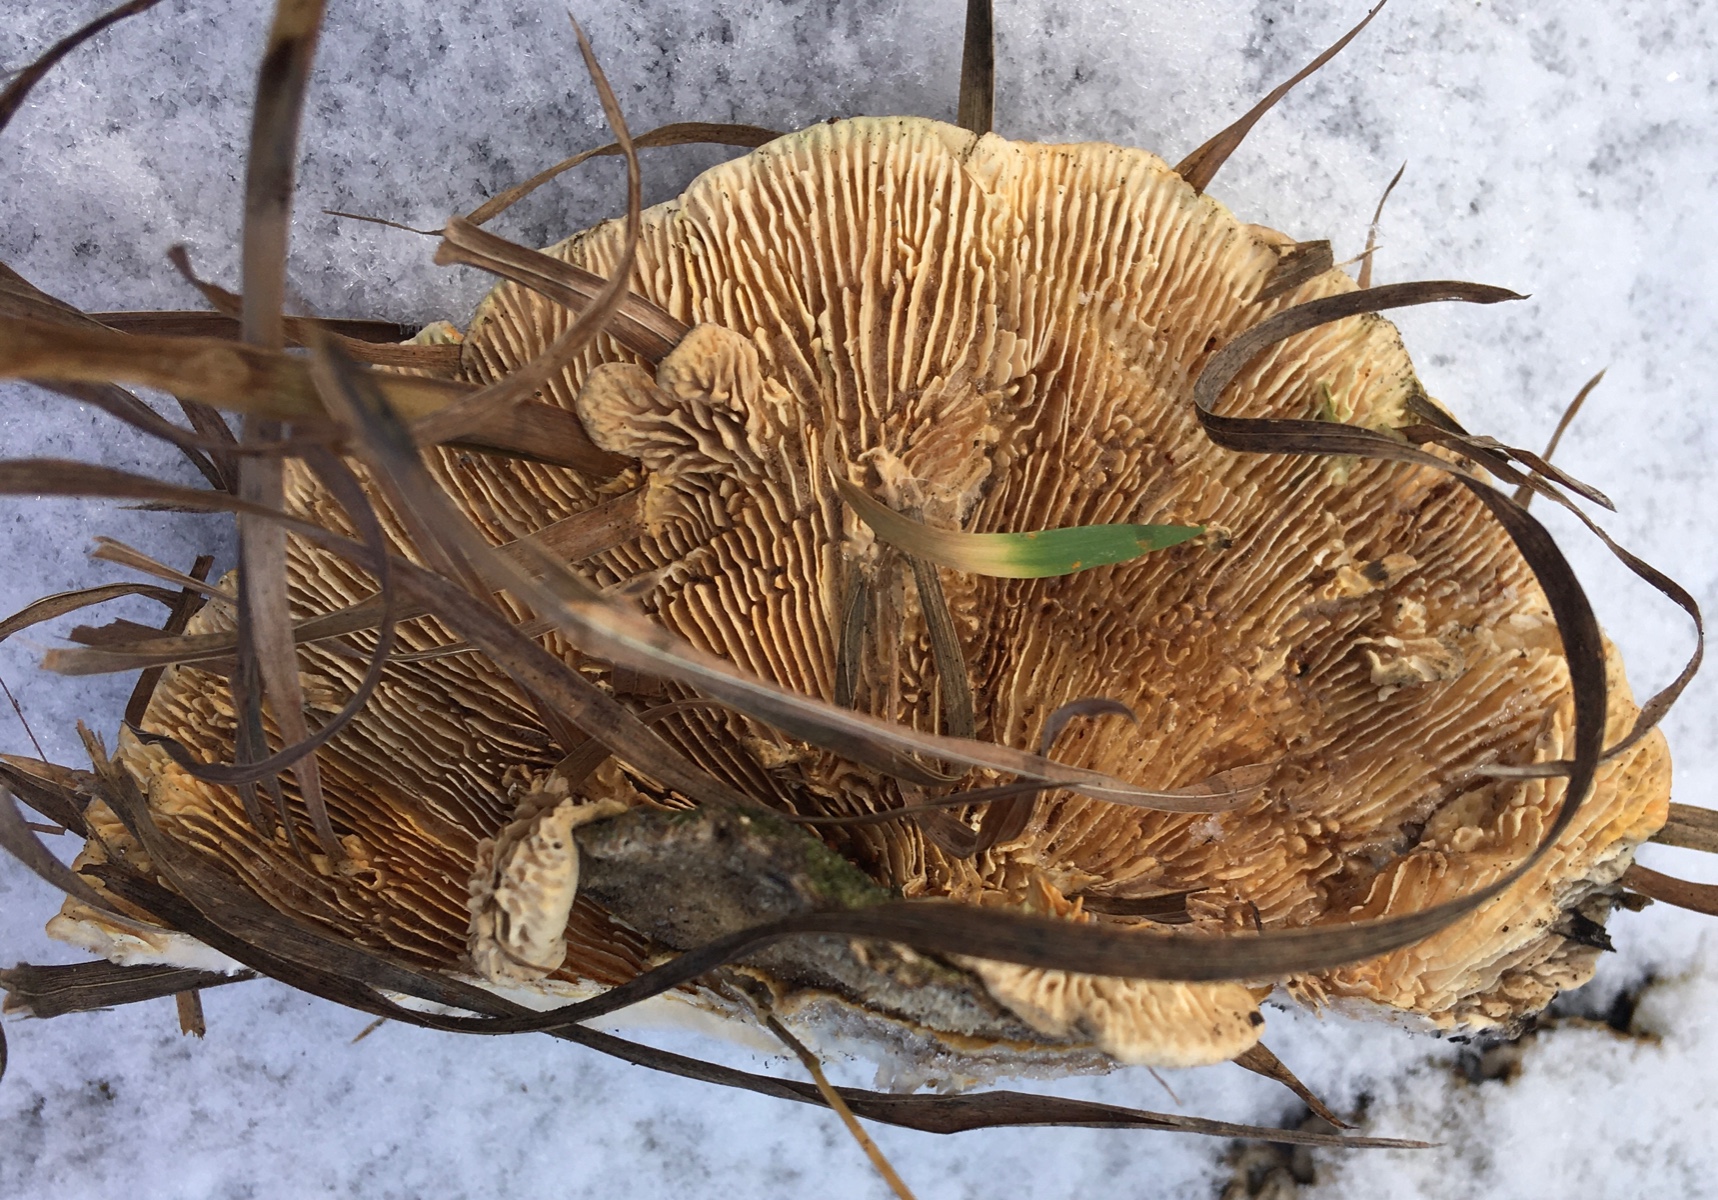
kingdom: Fungi
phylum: Basidiomycota
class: Agaricomycetes
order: Polyporales
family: Polyporaceae
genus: Lenzites
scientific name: Lenzites betulinus
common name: birke-læderporesvamp
